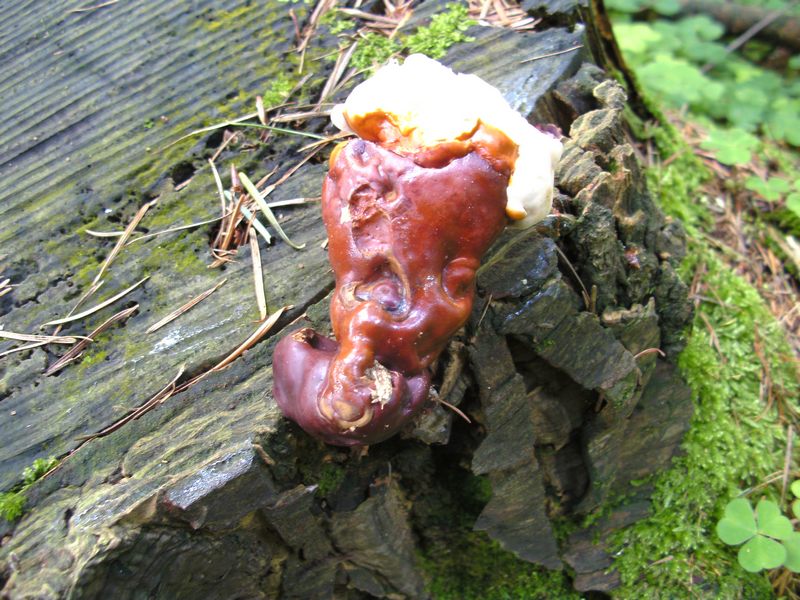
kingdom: Fungi
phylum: Basidiomycota
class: Agaricomycetes
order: Polyporales
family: Polyporaceae
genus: Ganoderma
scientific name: Ganoderma lucidum
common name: skinnende lakporesvamp
